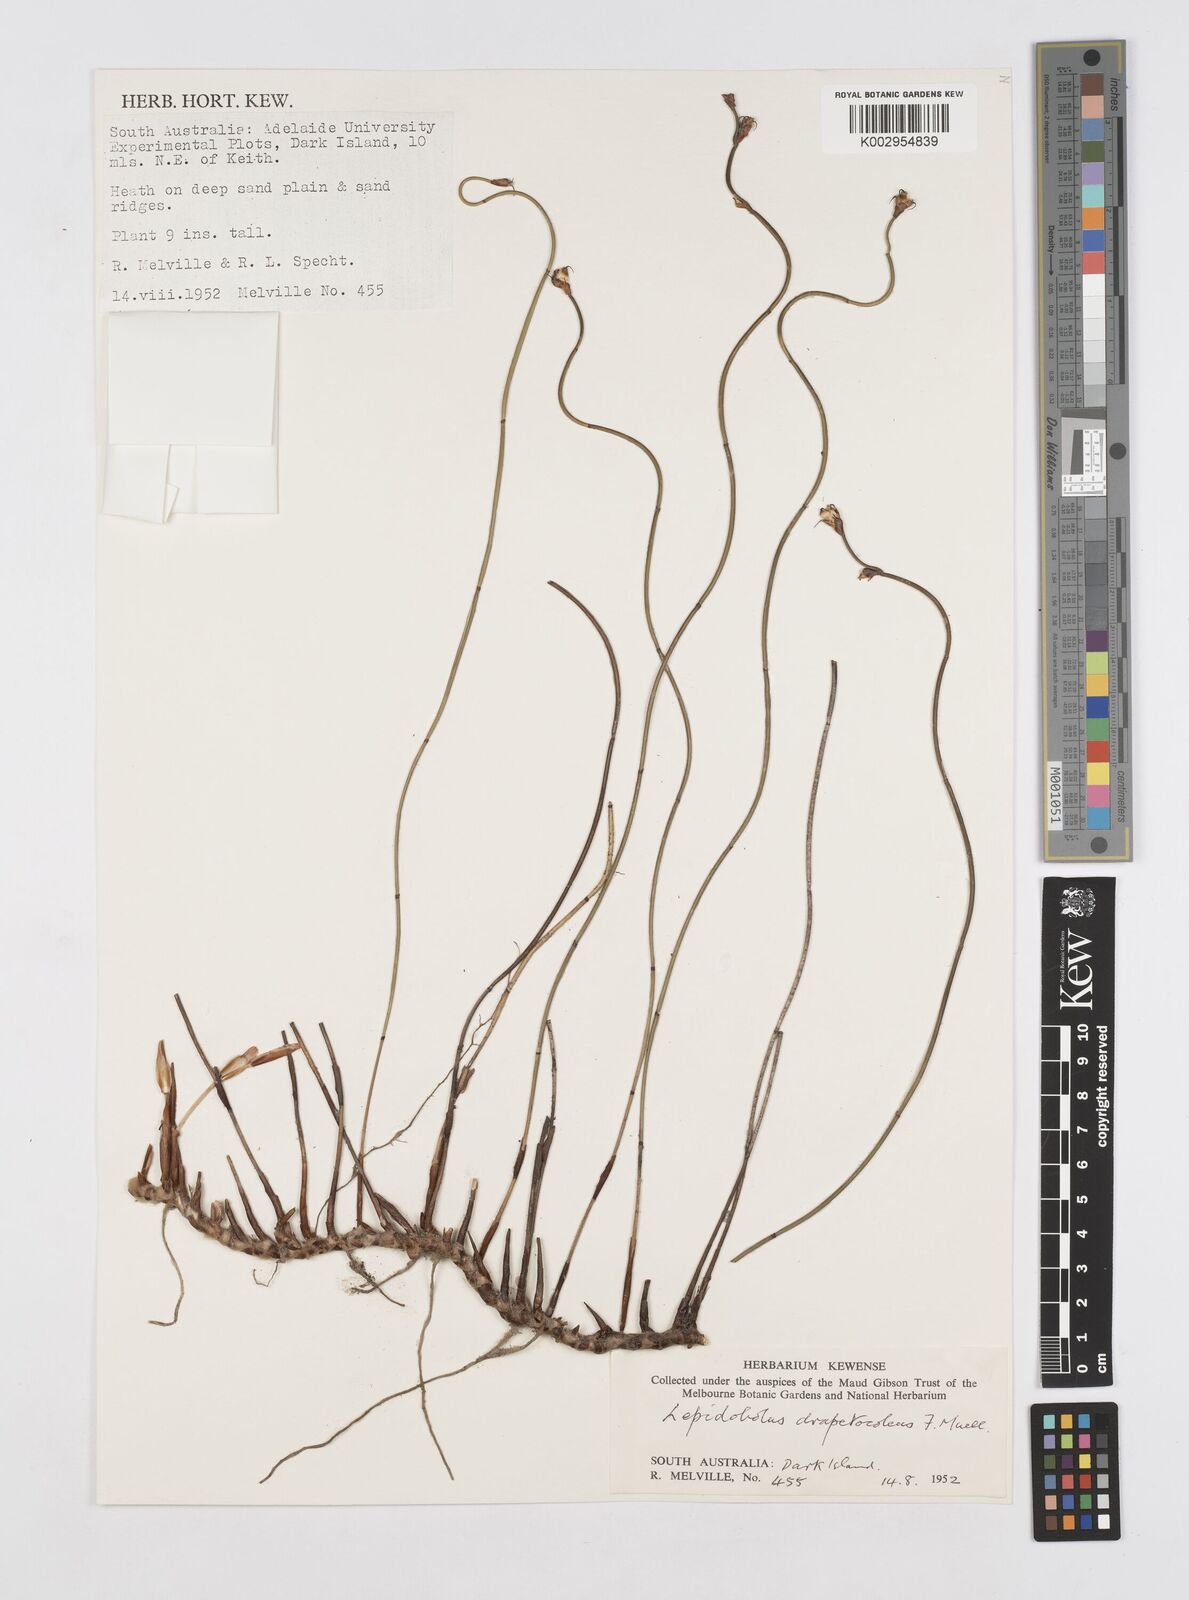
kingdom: Plantae
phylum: Tracheophyta
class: Liliopsida
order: Poales
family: Restionaceae
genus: Lepidobolus
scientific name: Lepidobolus drapetocoleus
